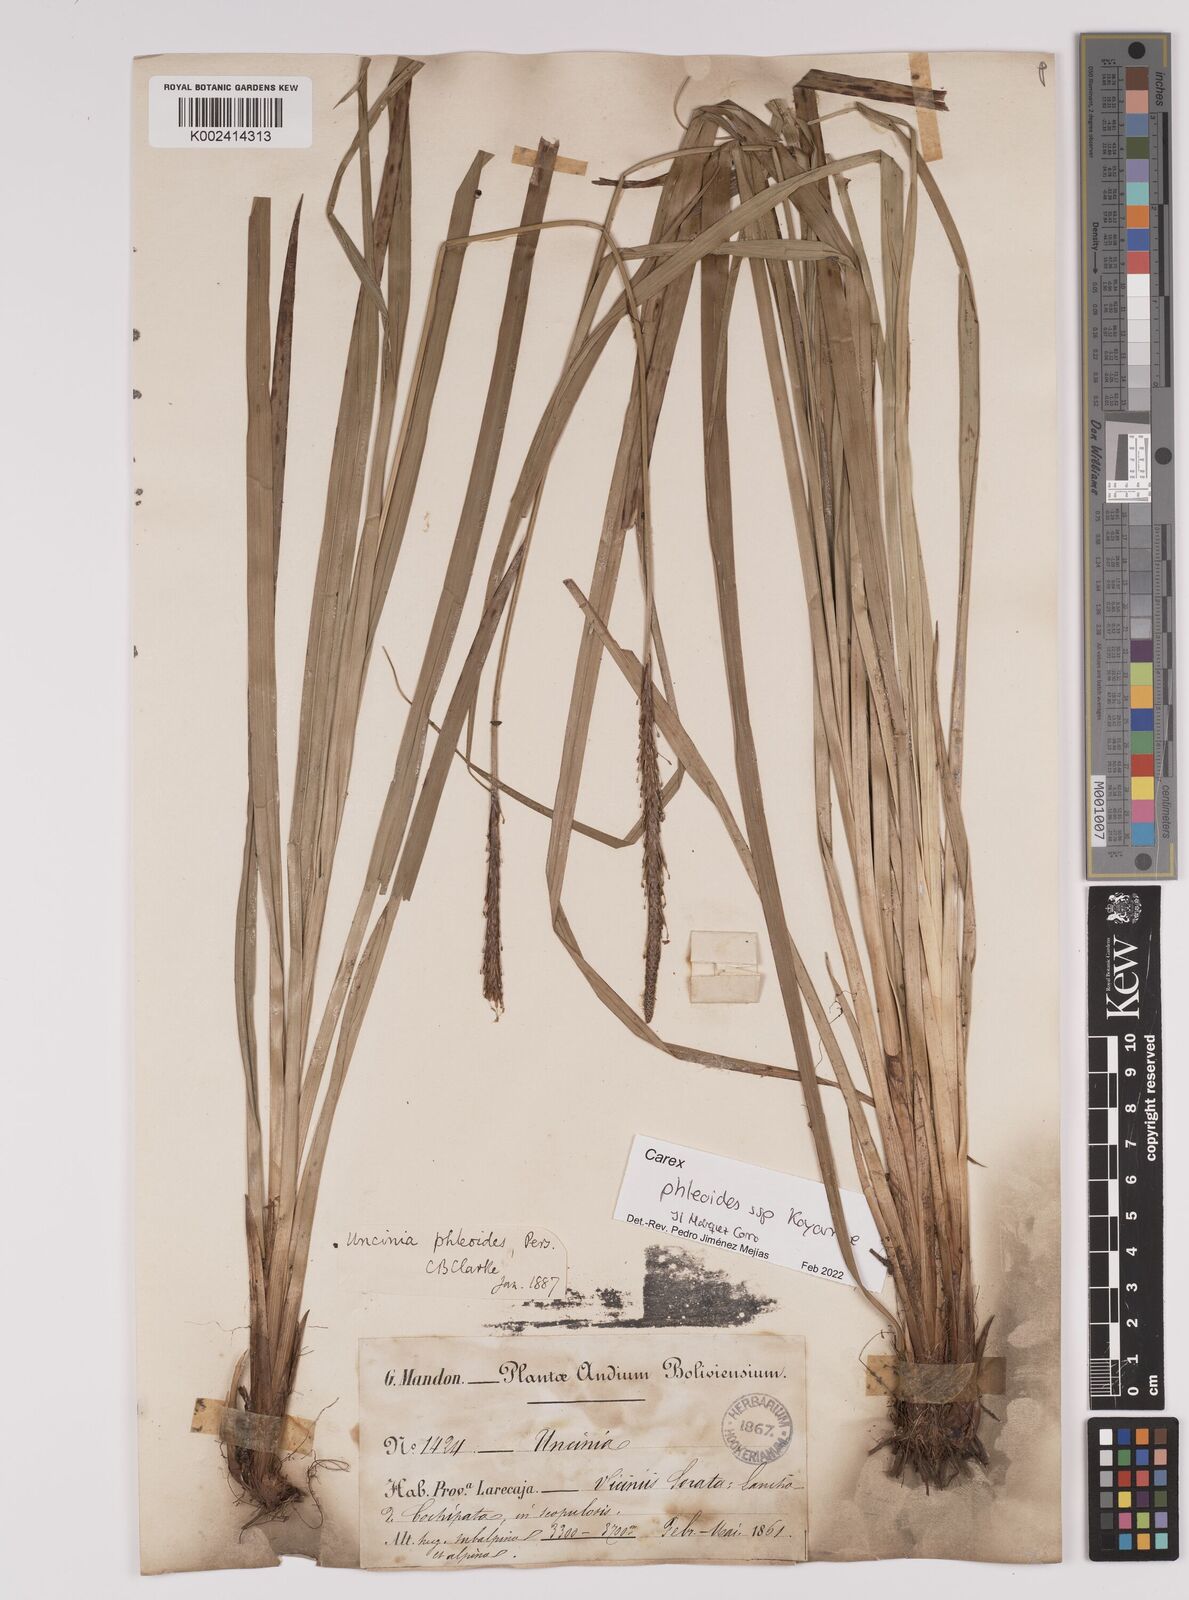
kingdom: Plantae
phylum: Tracheophyta
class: Liliopsida
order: Poales
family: Cyperaceae
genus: Carex
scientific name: Carex phleoides
